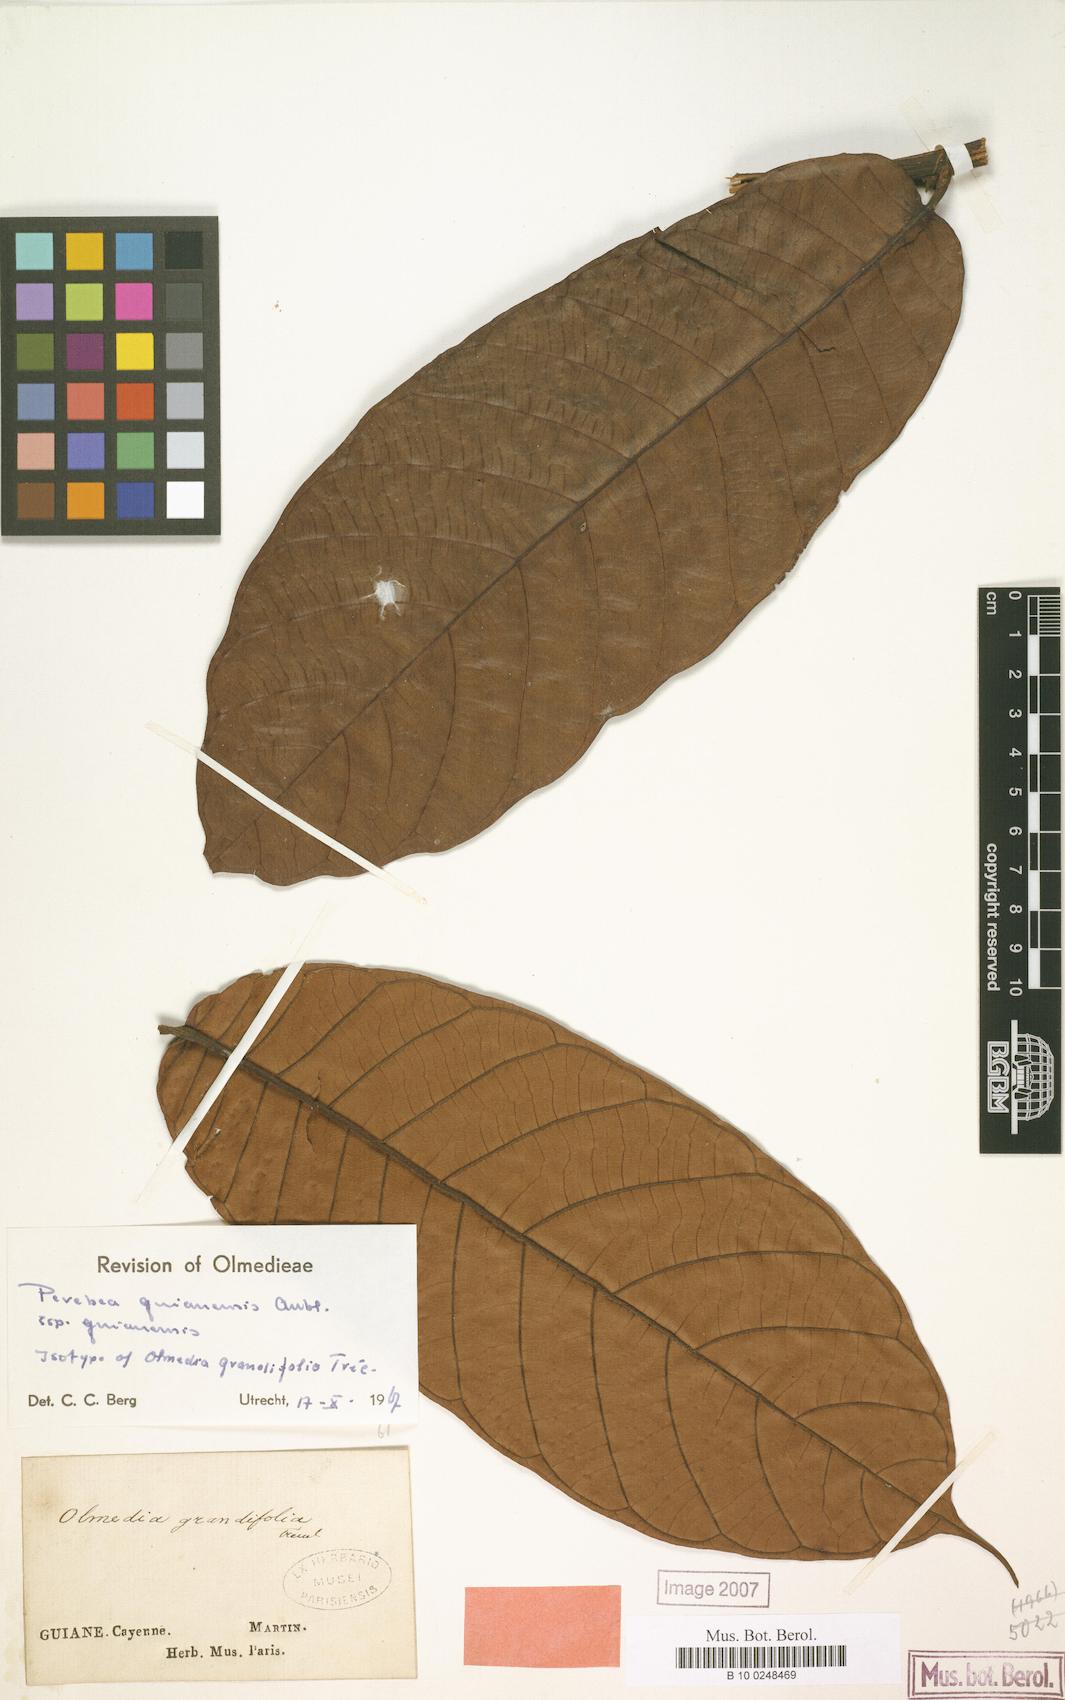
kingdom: Plantae
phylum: Tracheophyta
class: Magnoliopsida
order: Rosales
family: Moraceae
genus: Perebea
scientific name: Perebea guianensis
